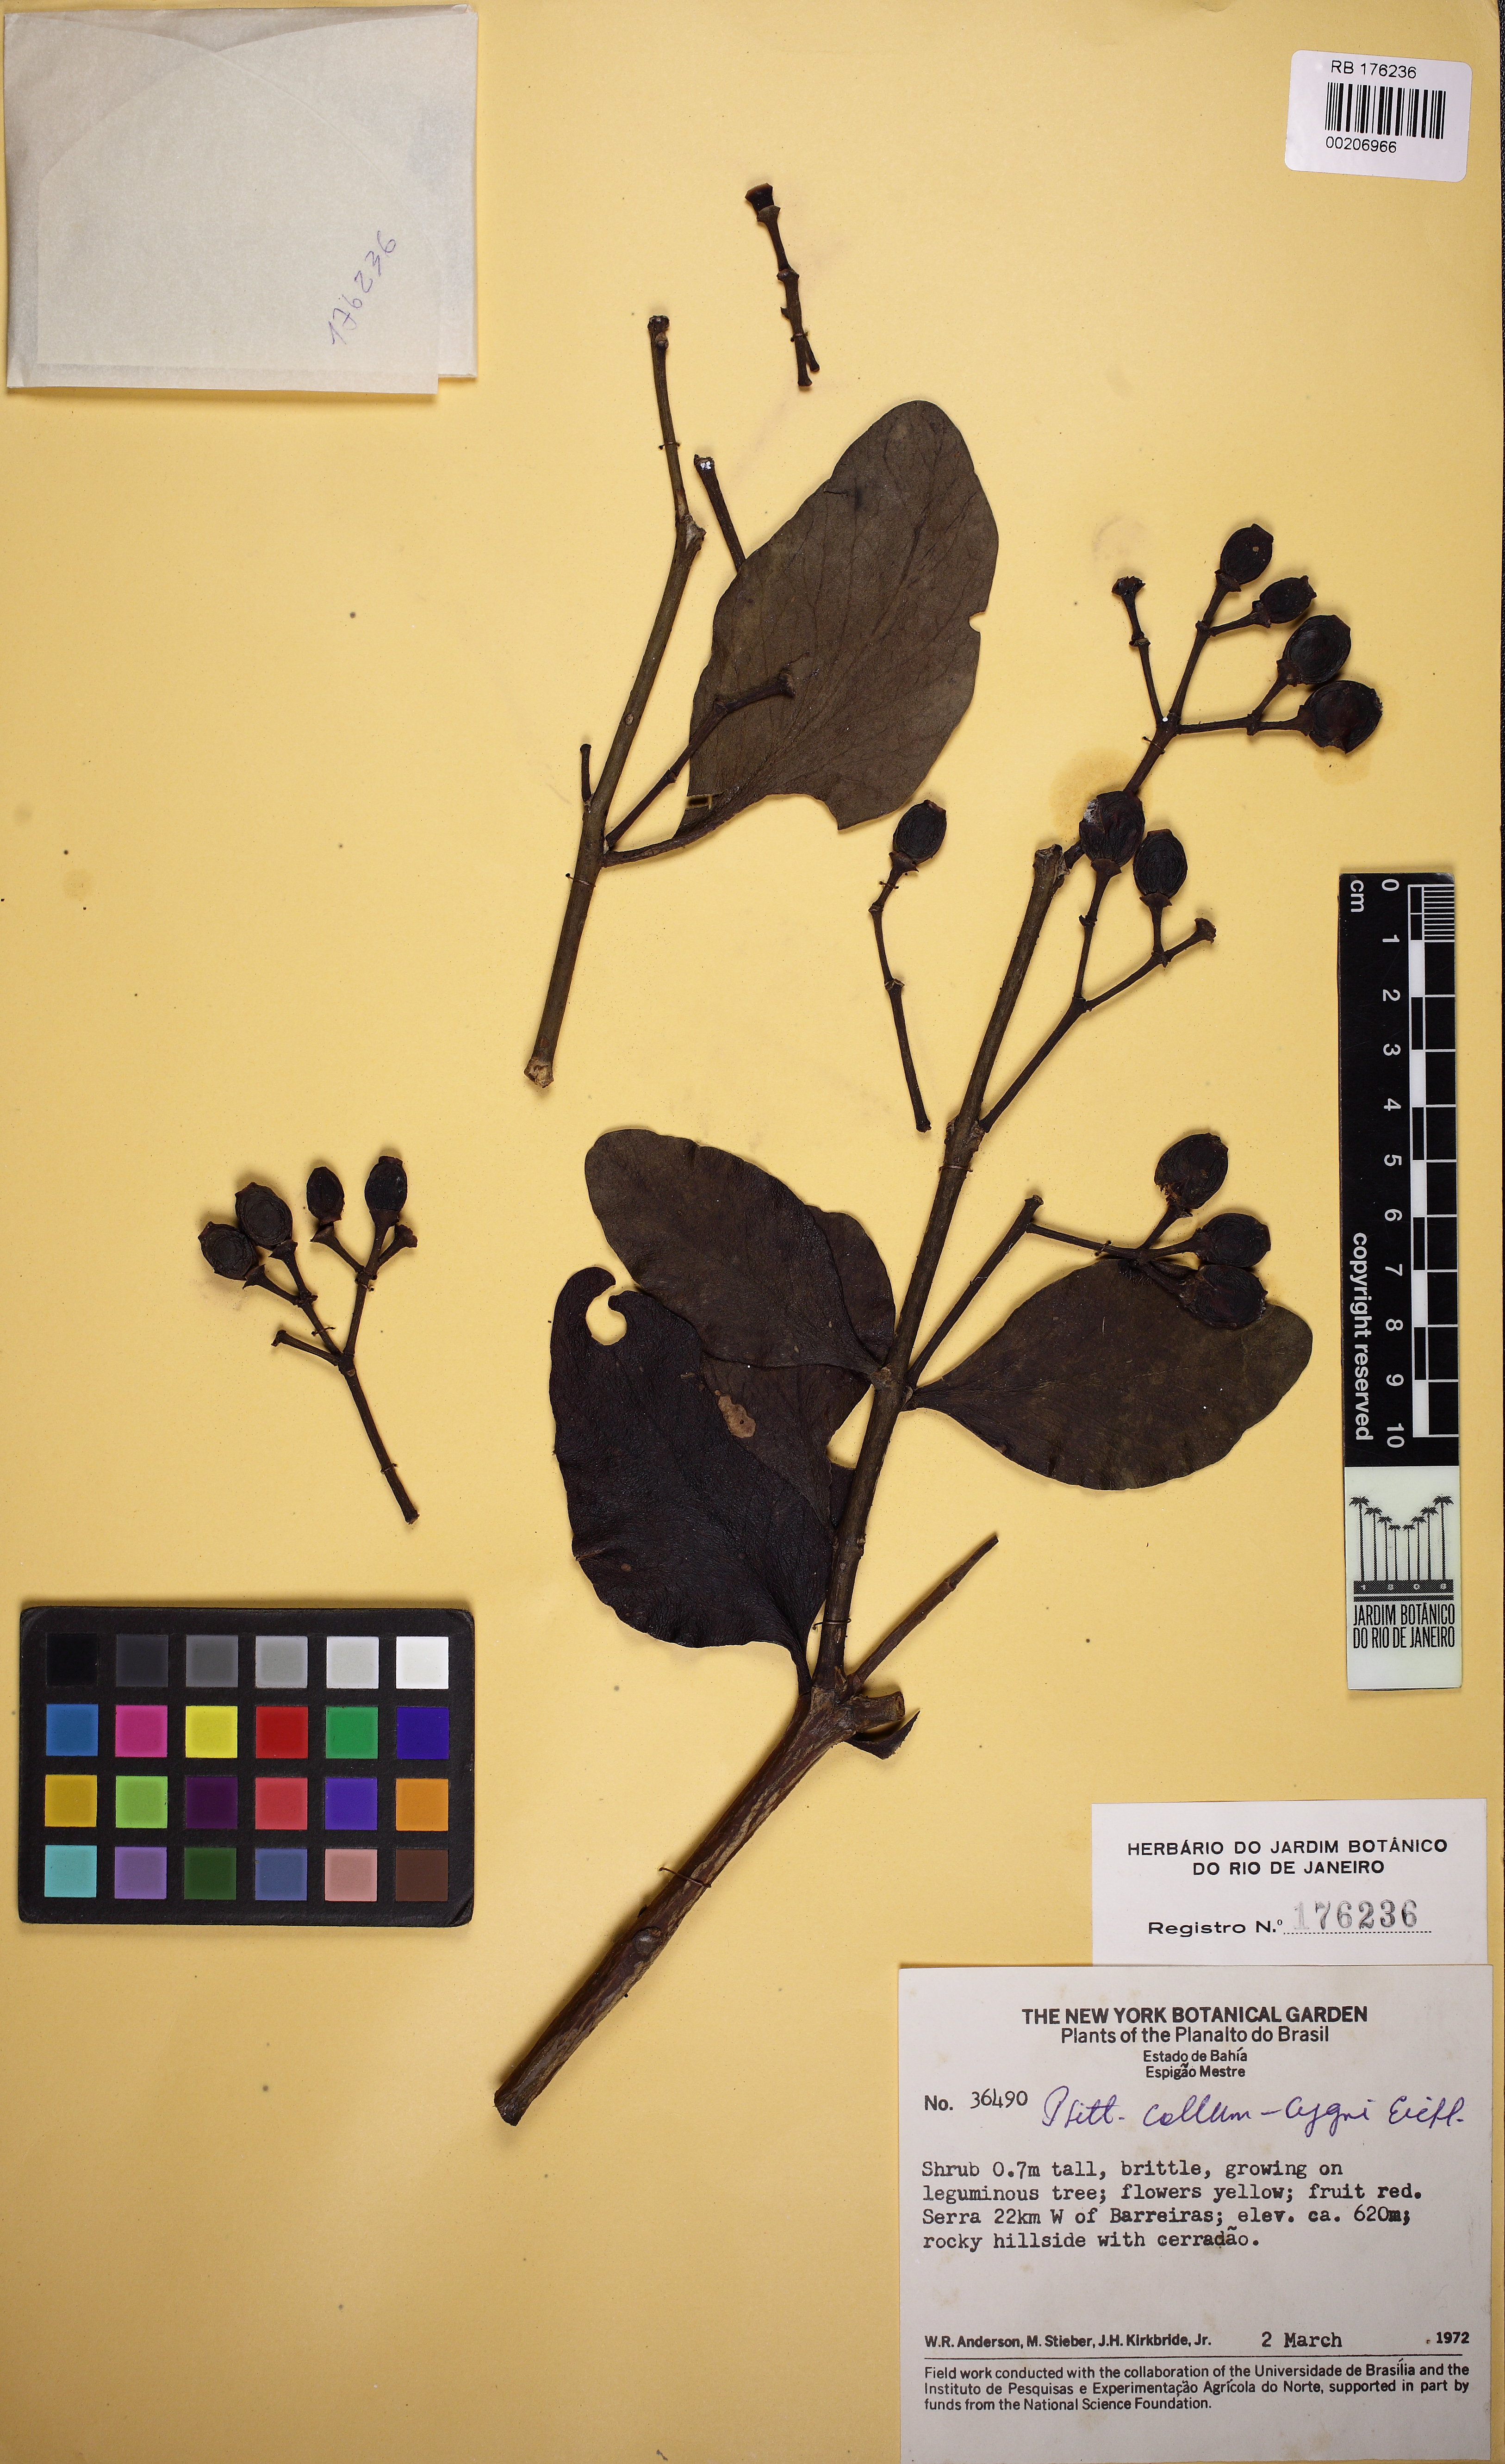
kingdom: Plantae
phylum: Tracheophyta
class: Magnoliopsida
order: Santalales
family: Loranthaceae
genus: Psittacanthus
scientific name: Psittacanthus eucalyptifolius
